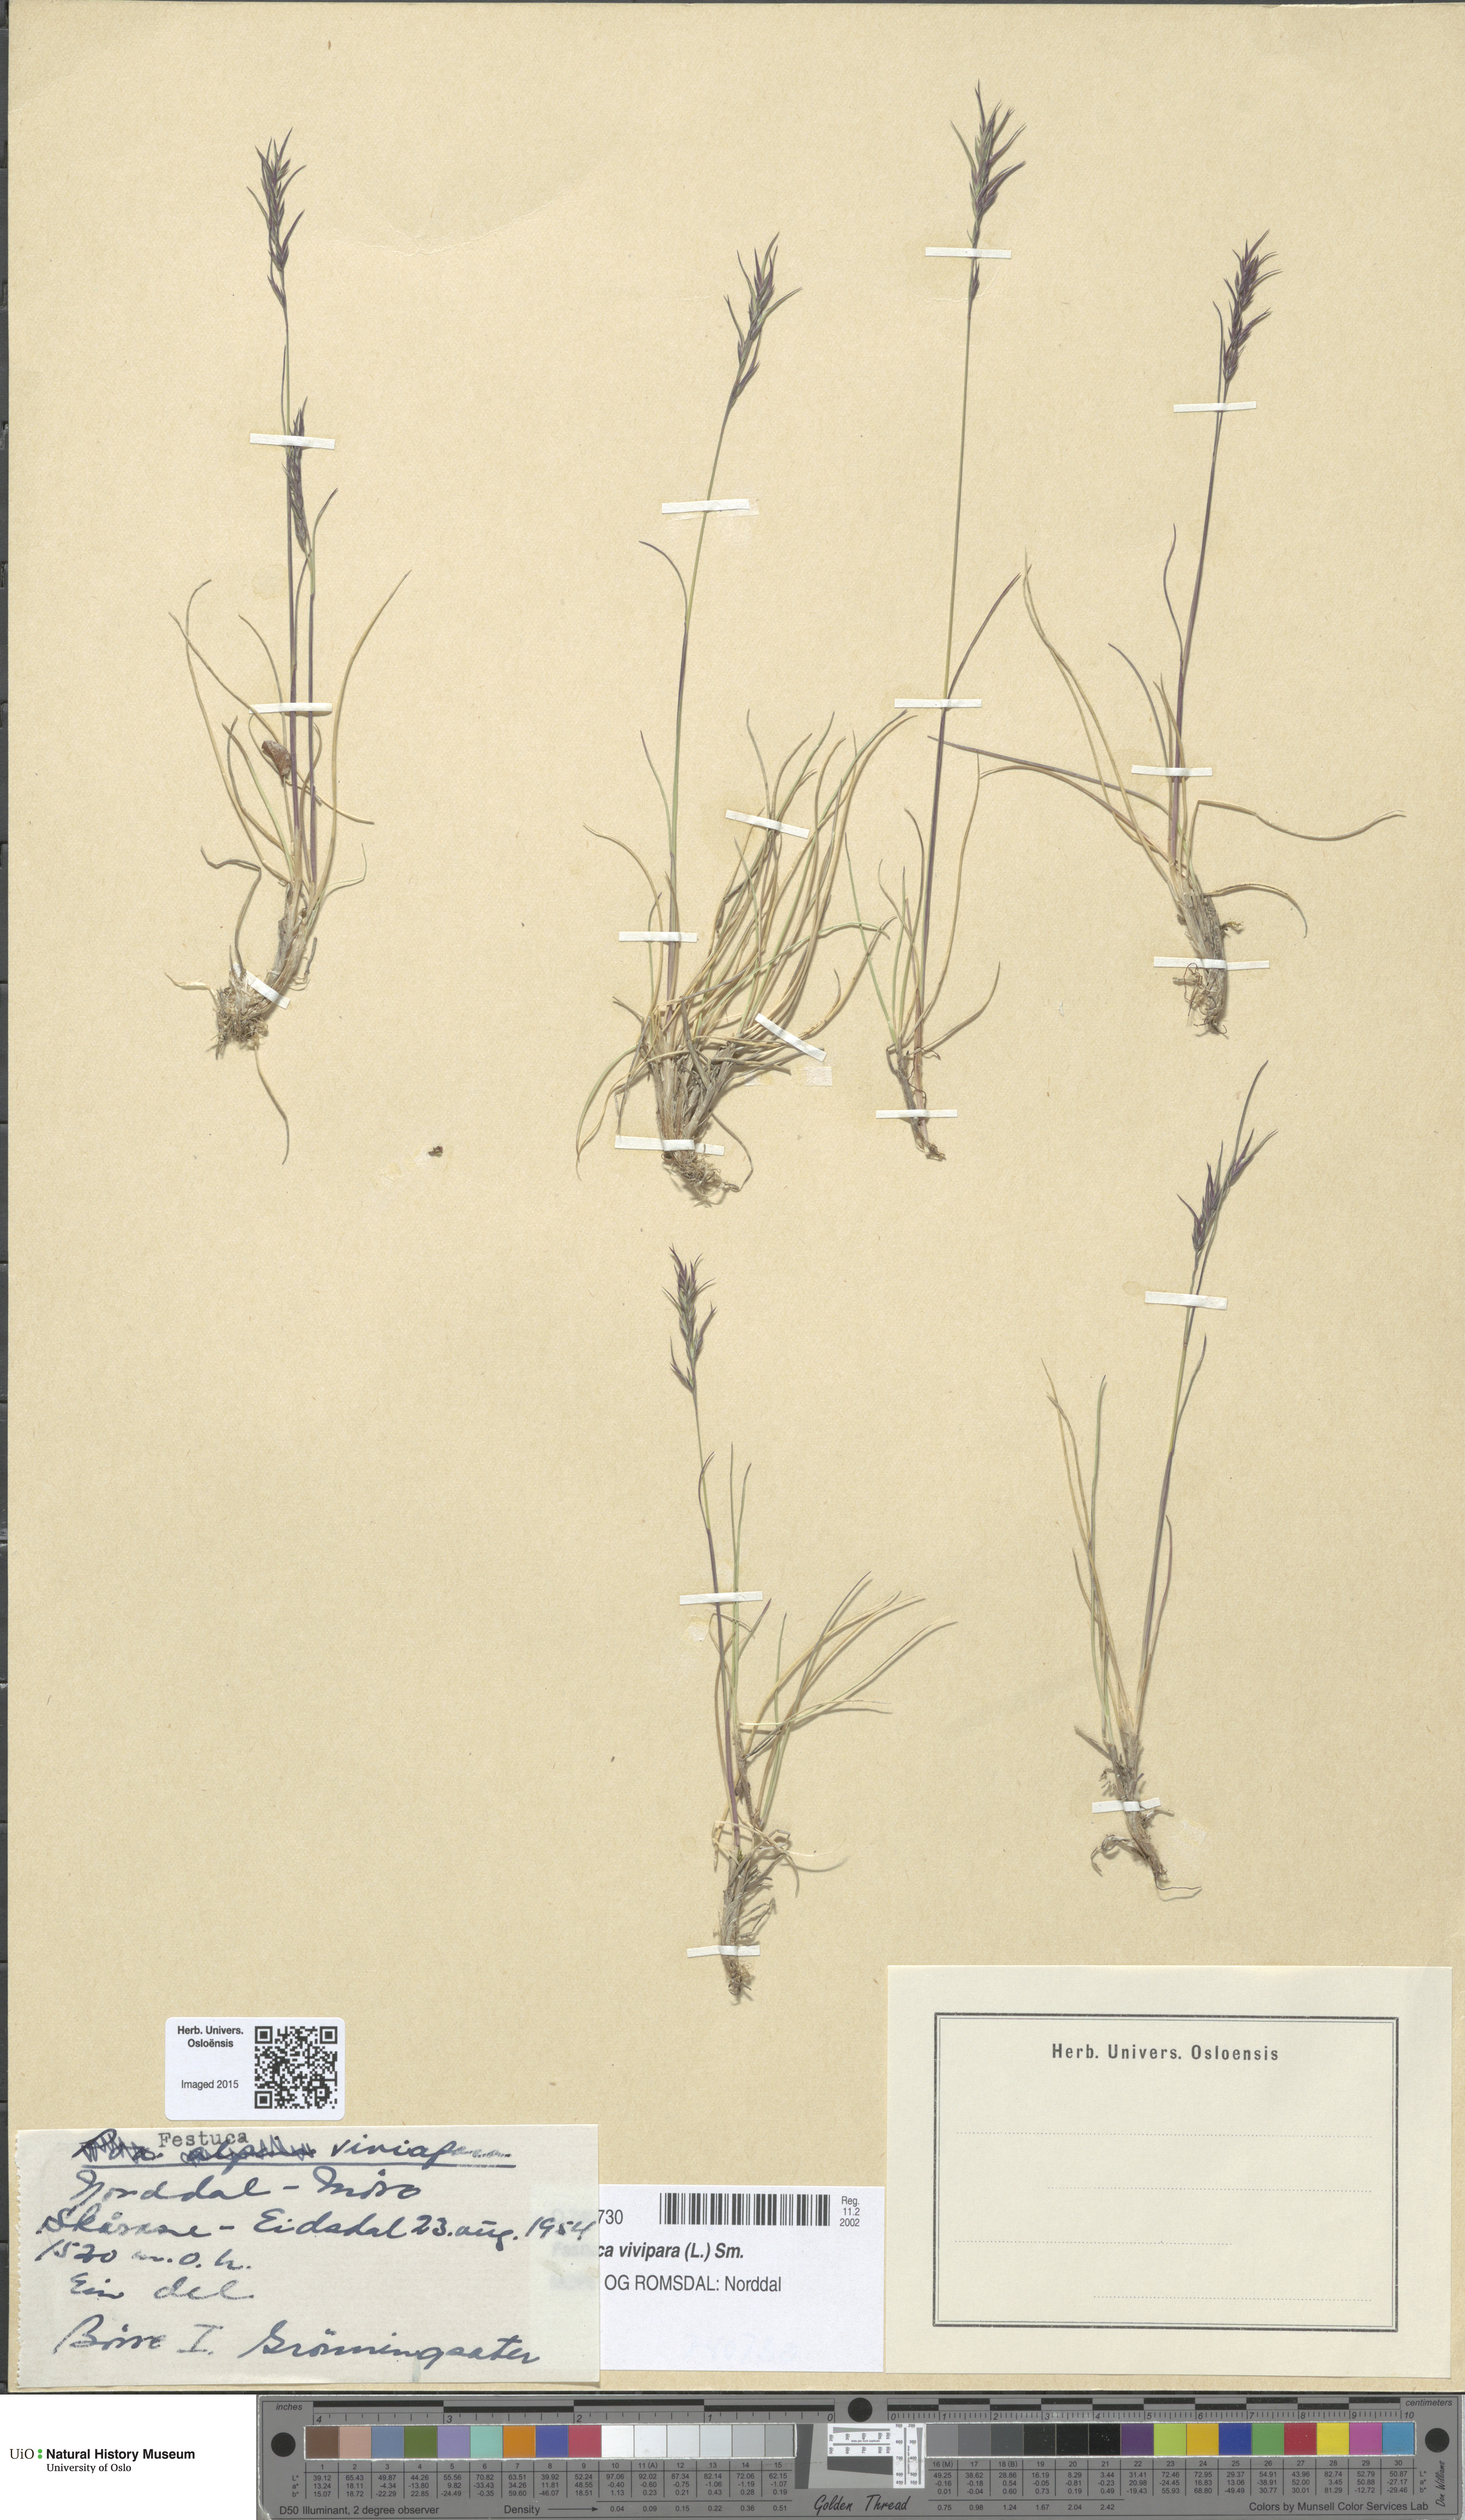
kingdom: Plantae
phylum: Tracheophyta
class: Liliopsida
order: Poales
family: Poaceae
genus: Festuca
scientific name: Festuca vivipara
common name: Viviparous sheep's-fescue
